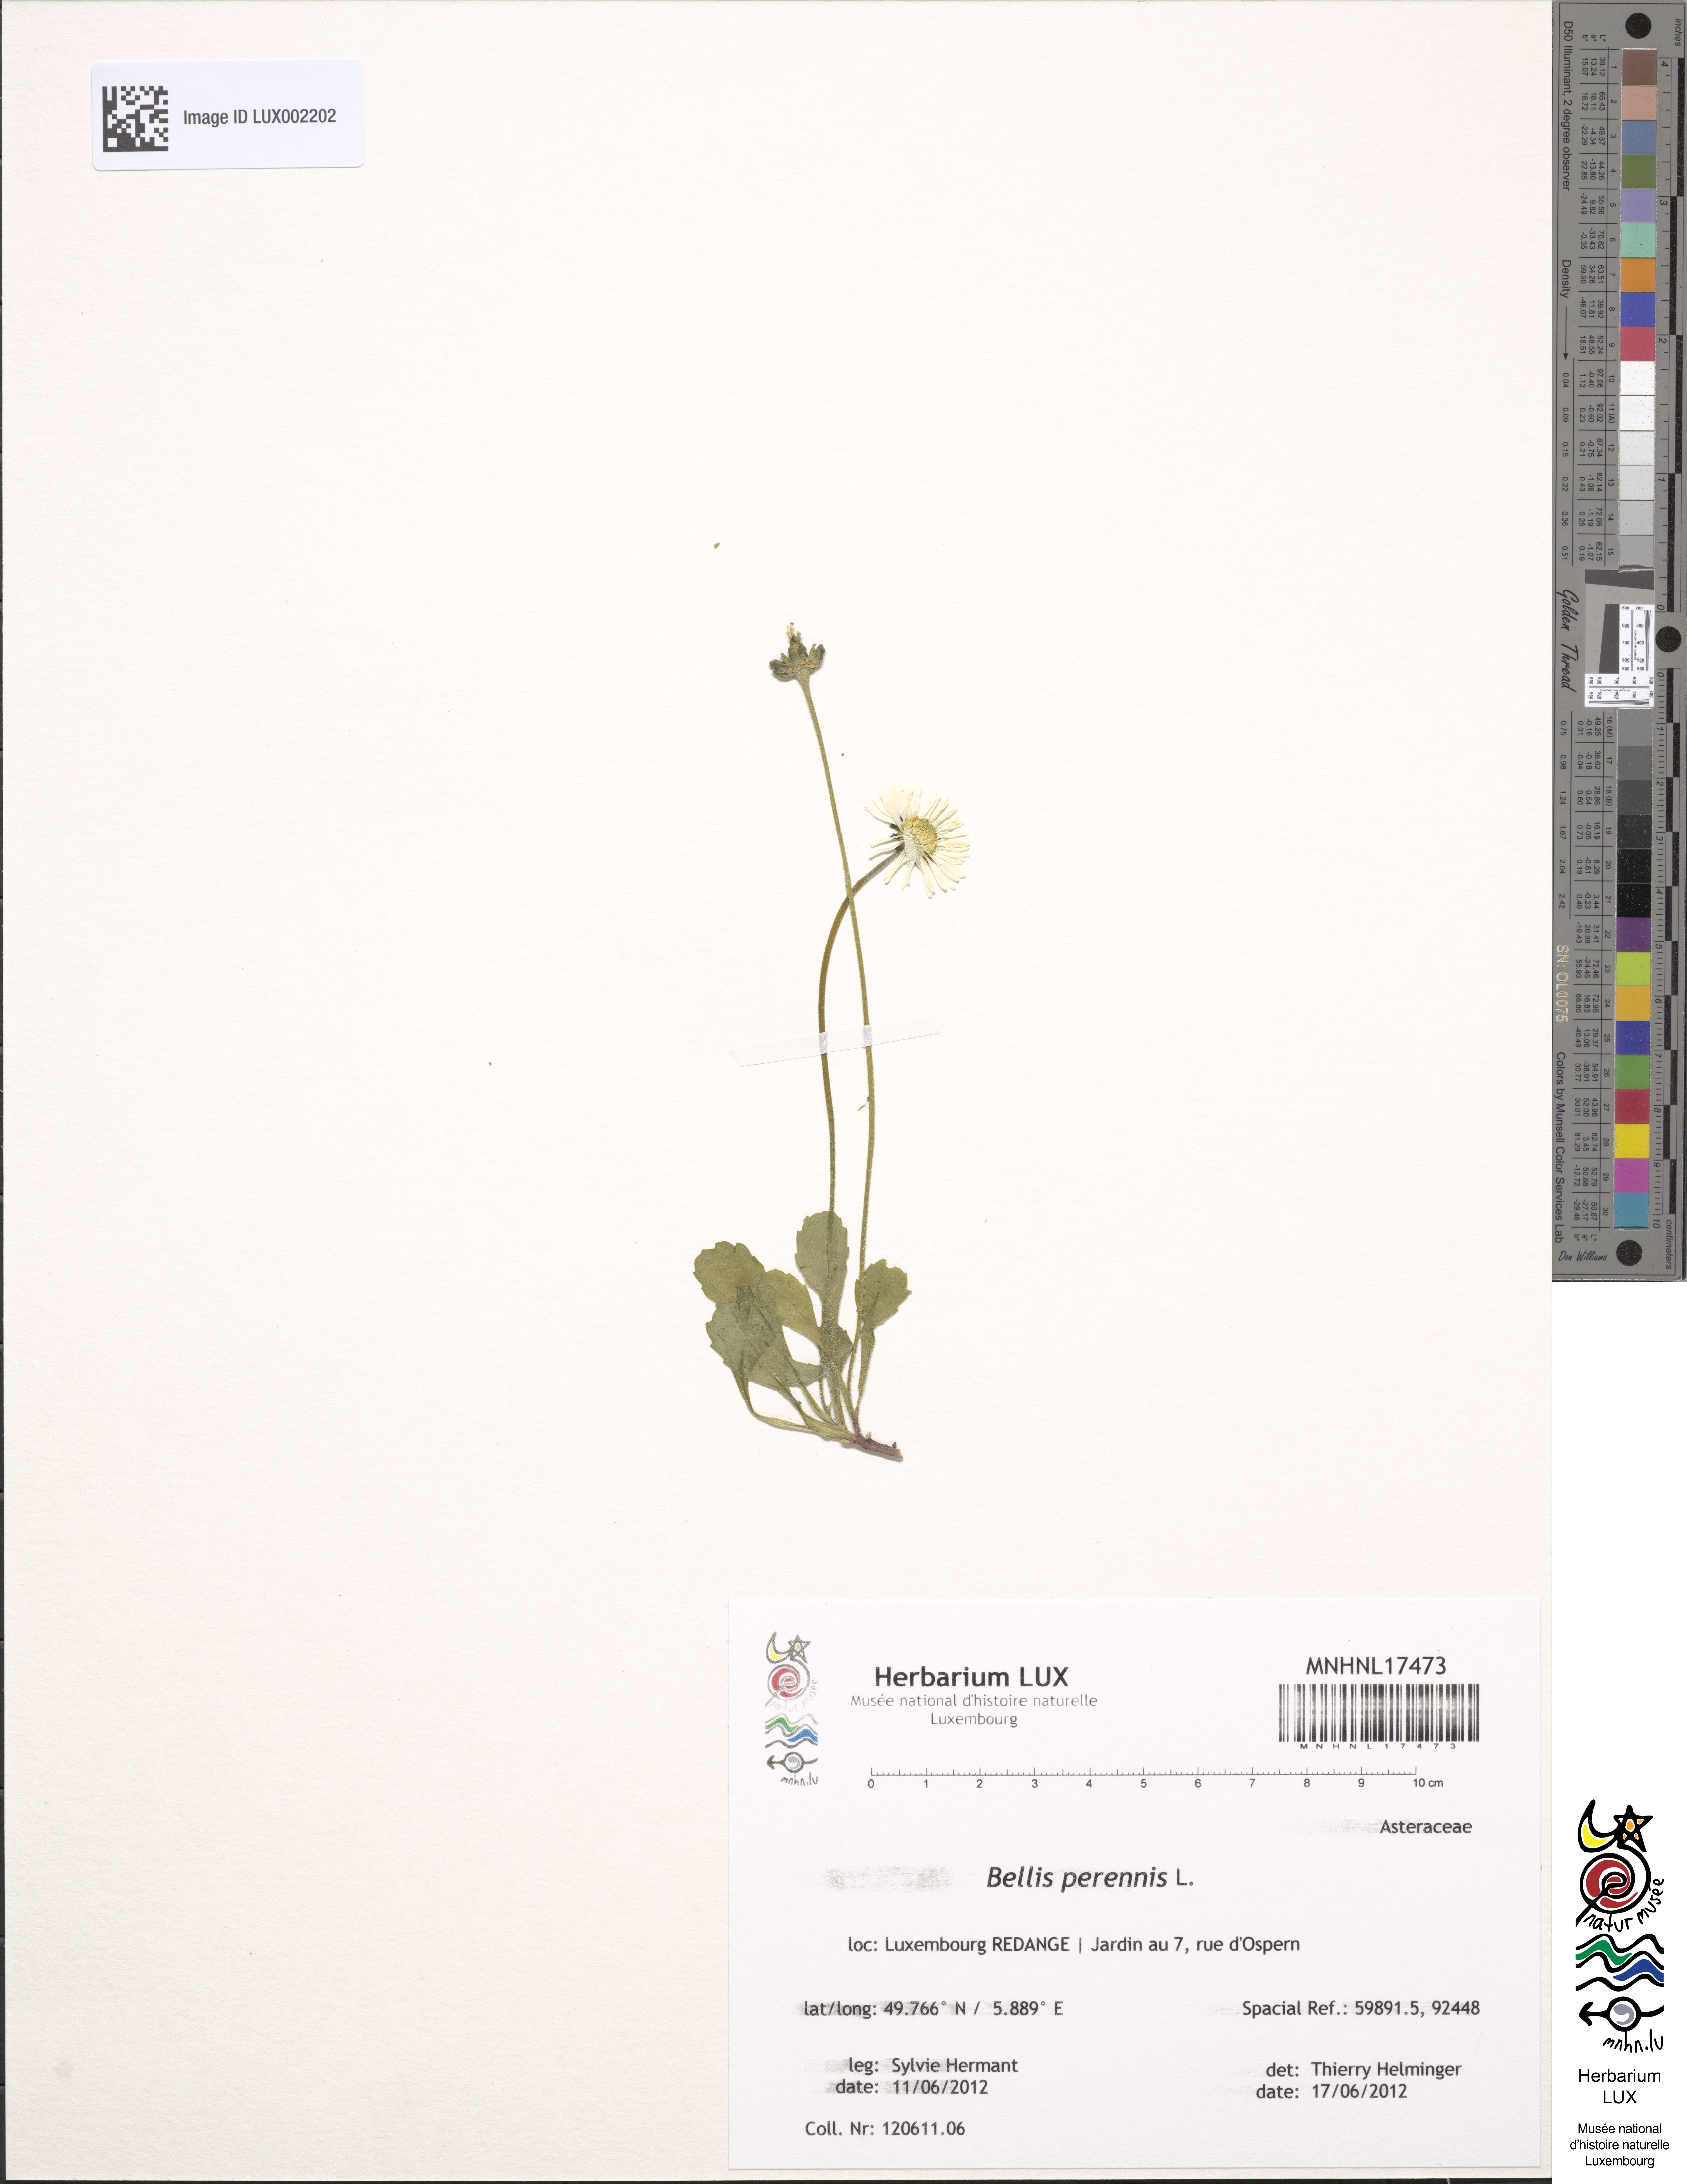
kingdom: Plantae
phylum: Tracheophyta
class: Magnoliopsida
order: Asterales
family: Asteraceae
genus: Bellis
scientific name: Bellis perennis
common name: Lawndaisy
